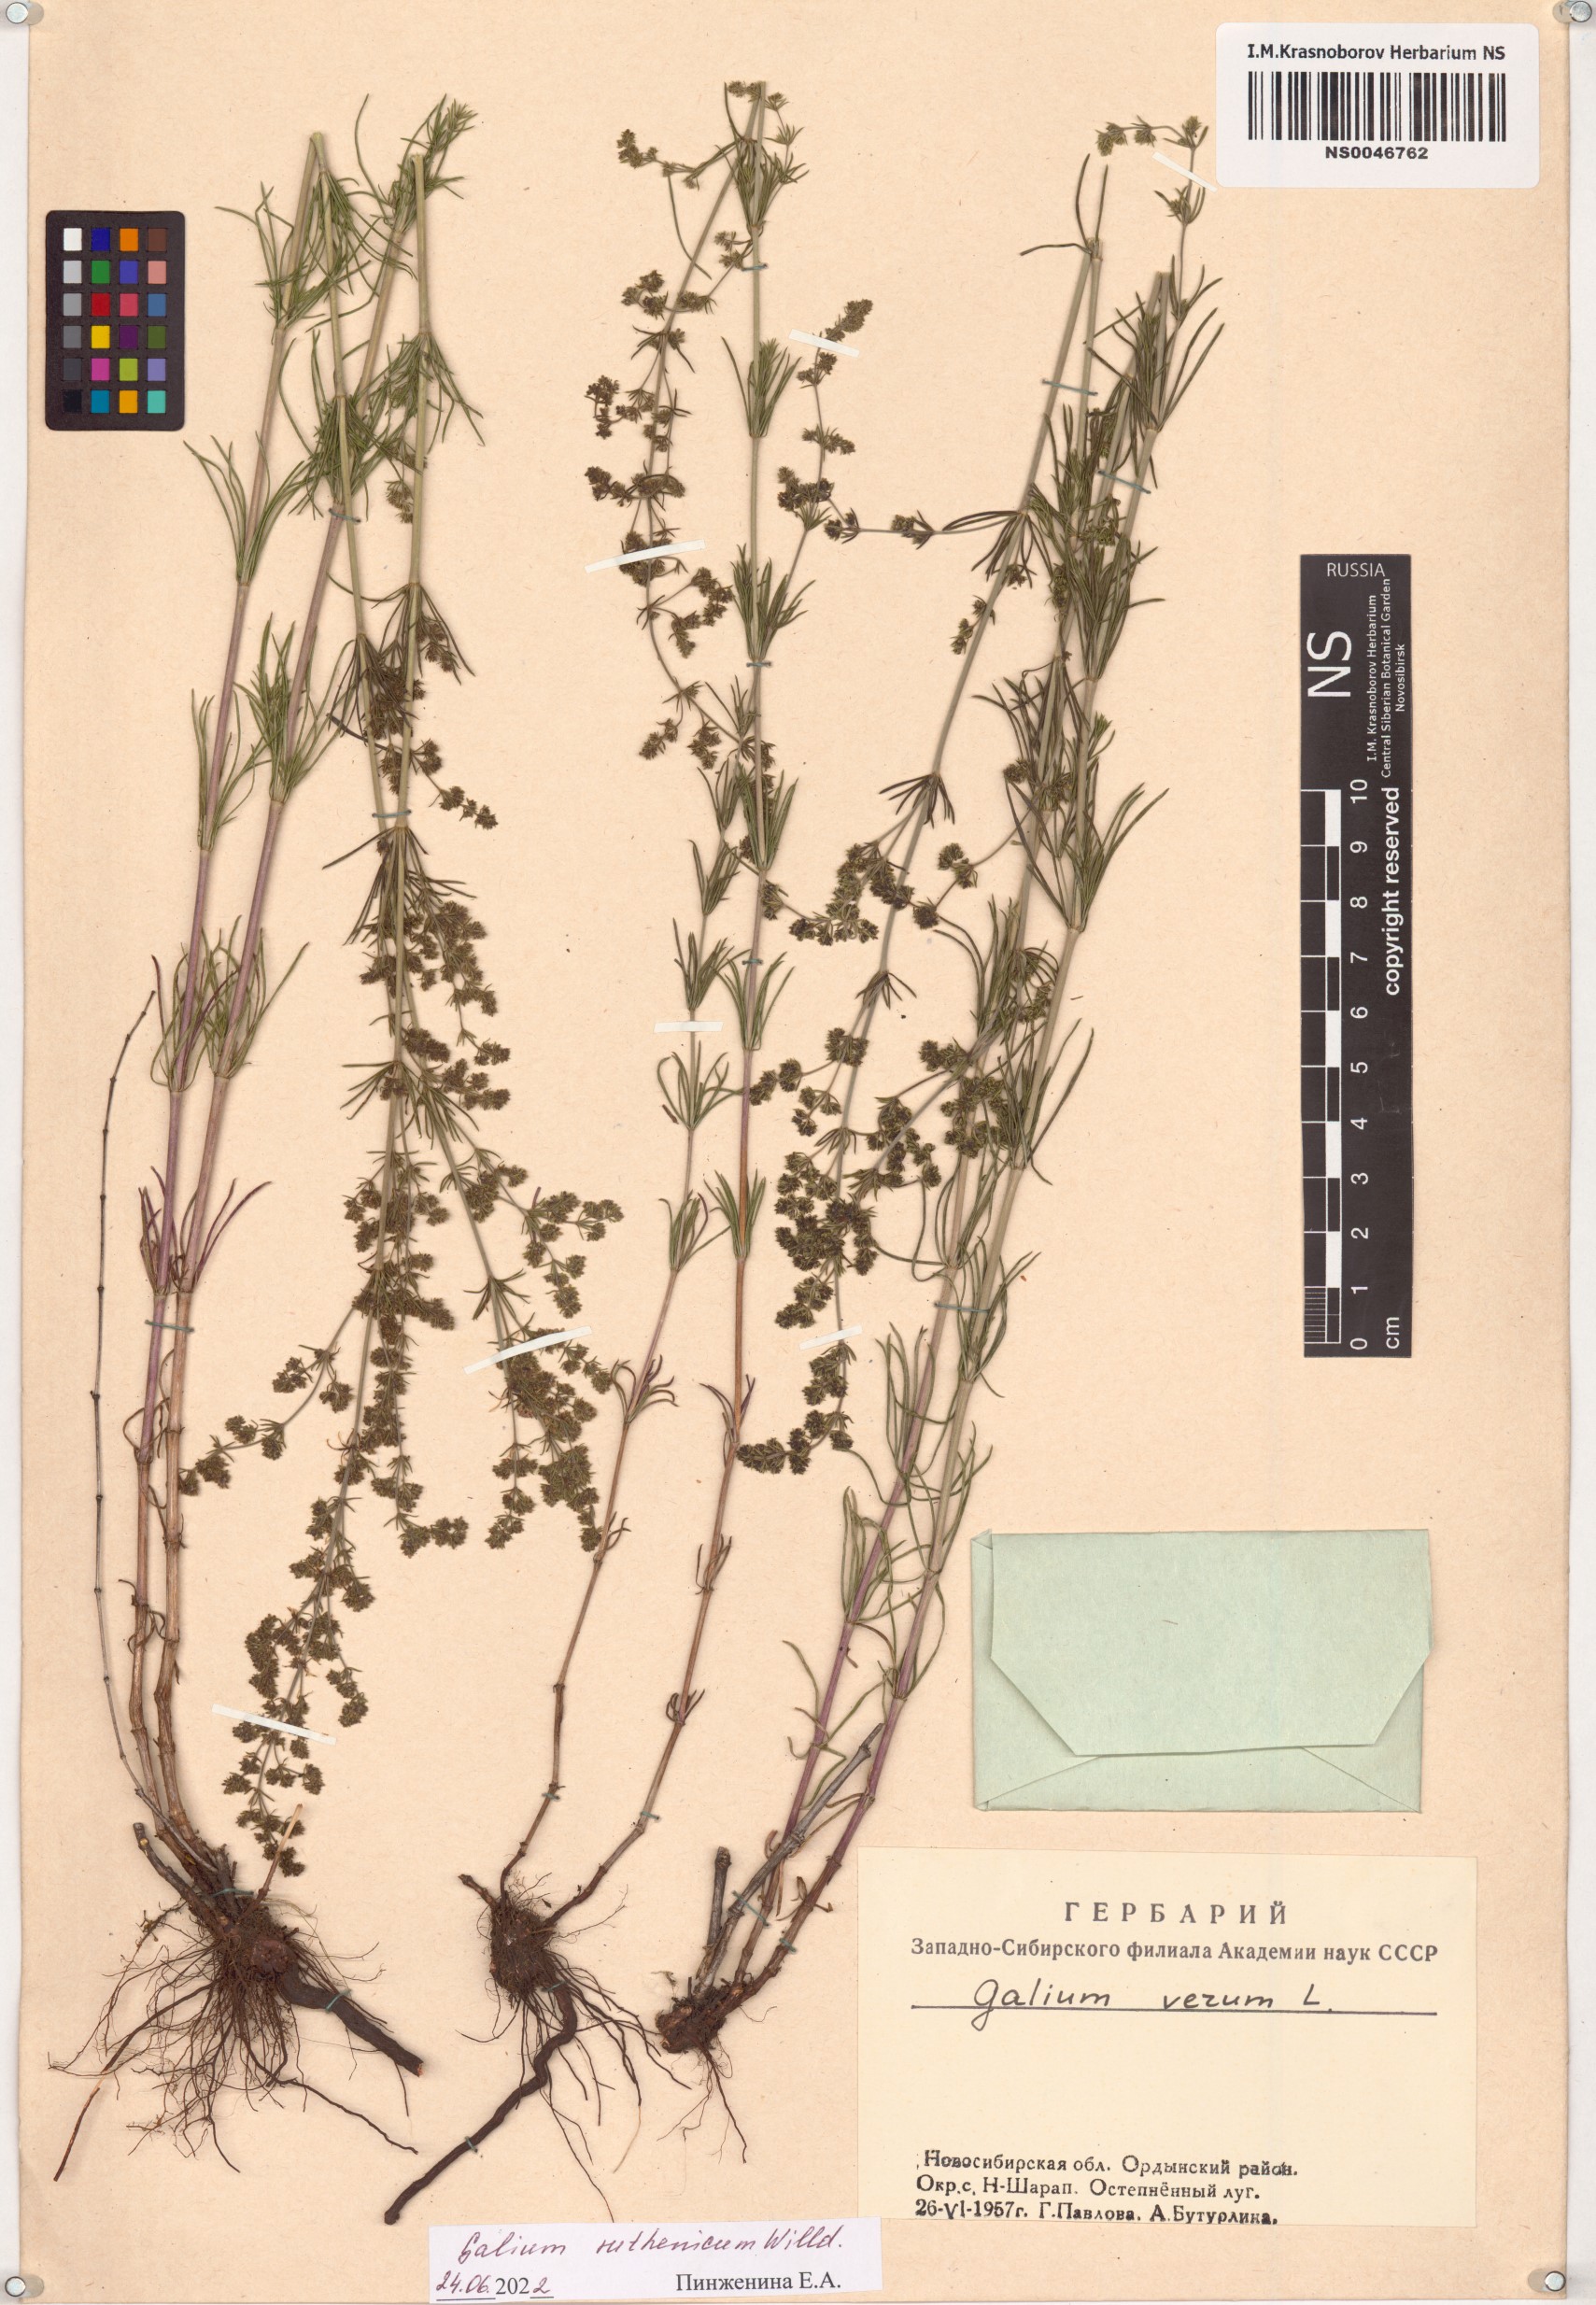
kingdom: Plantae
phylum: Tracheophyta
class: Magnoliopsida
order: Gentianales
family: Rubiaceae
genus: Galium
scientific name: Galium verum
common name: Lady's bedstraw
